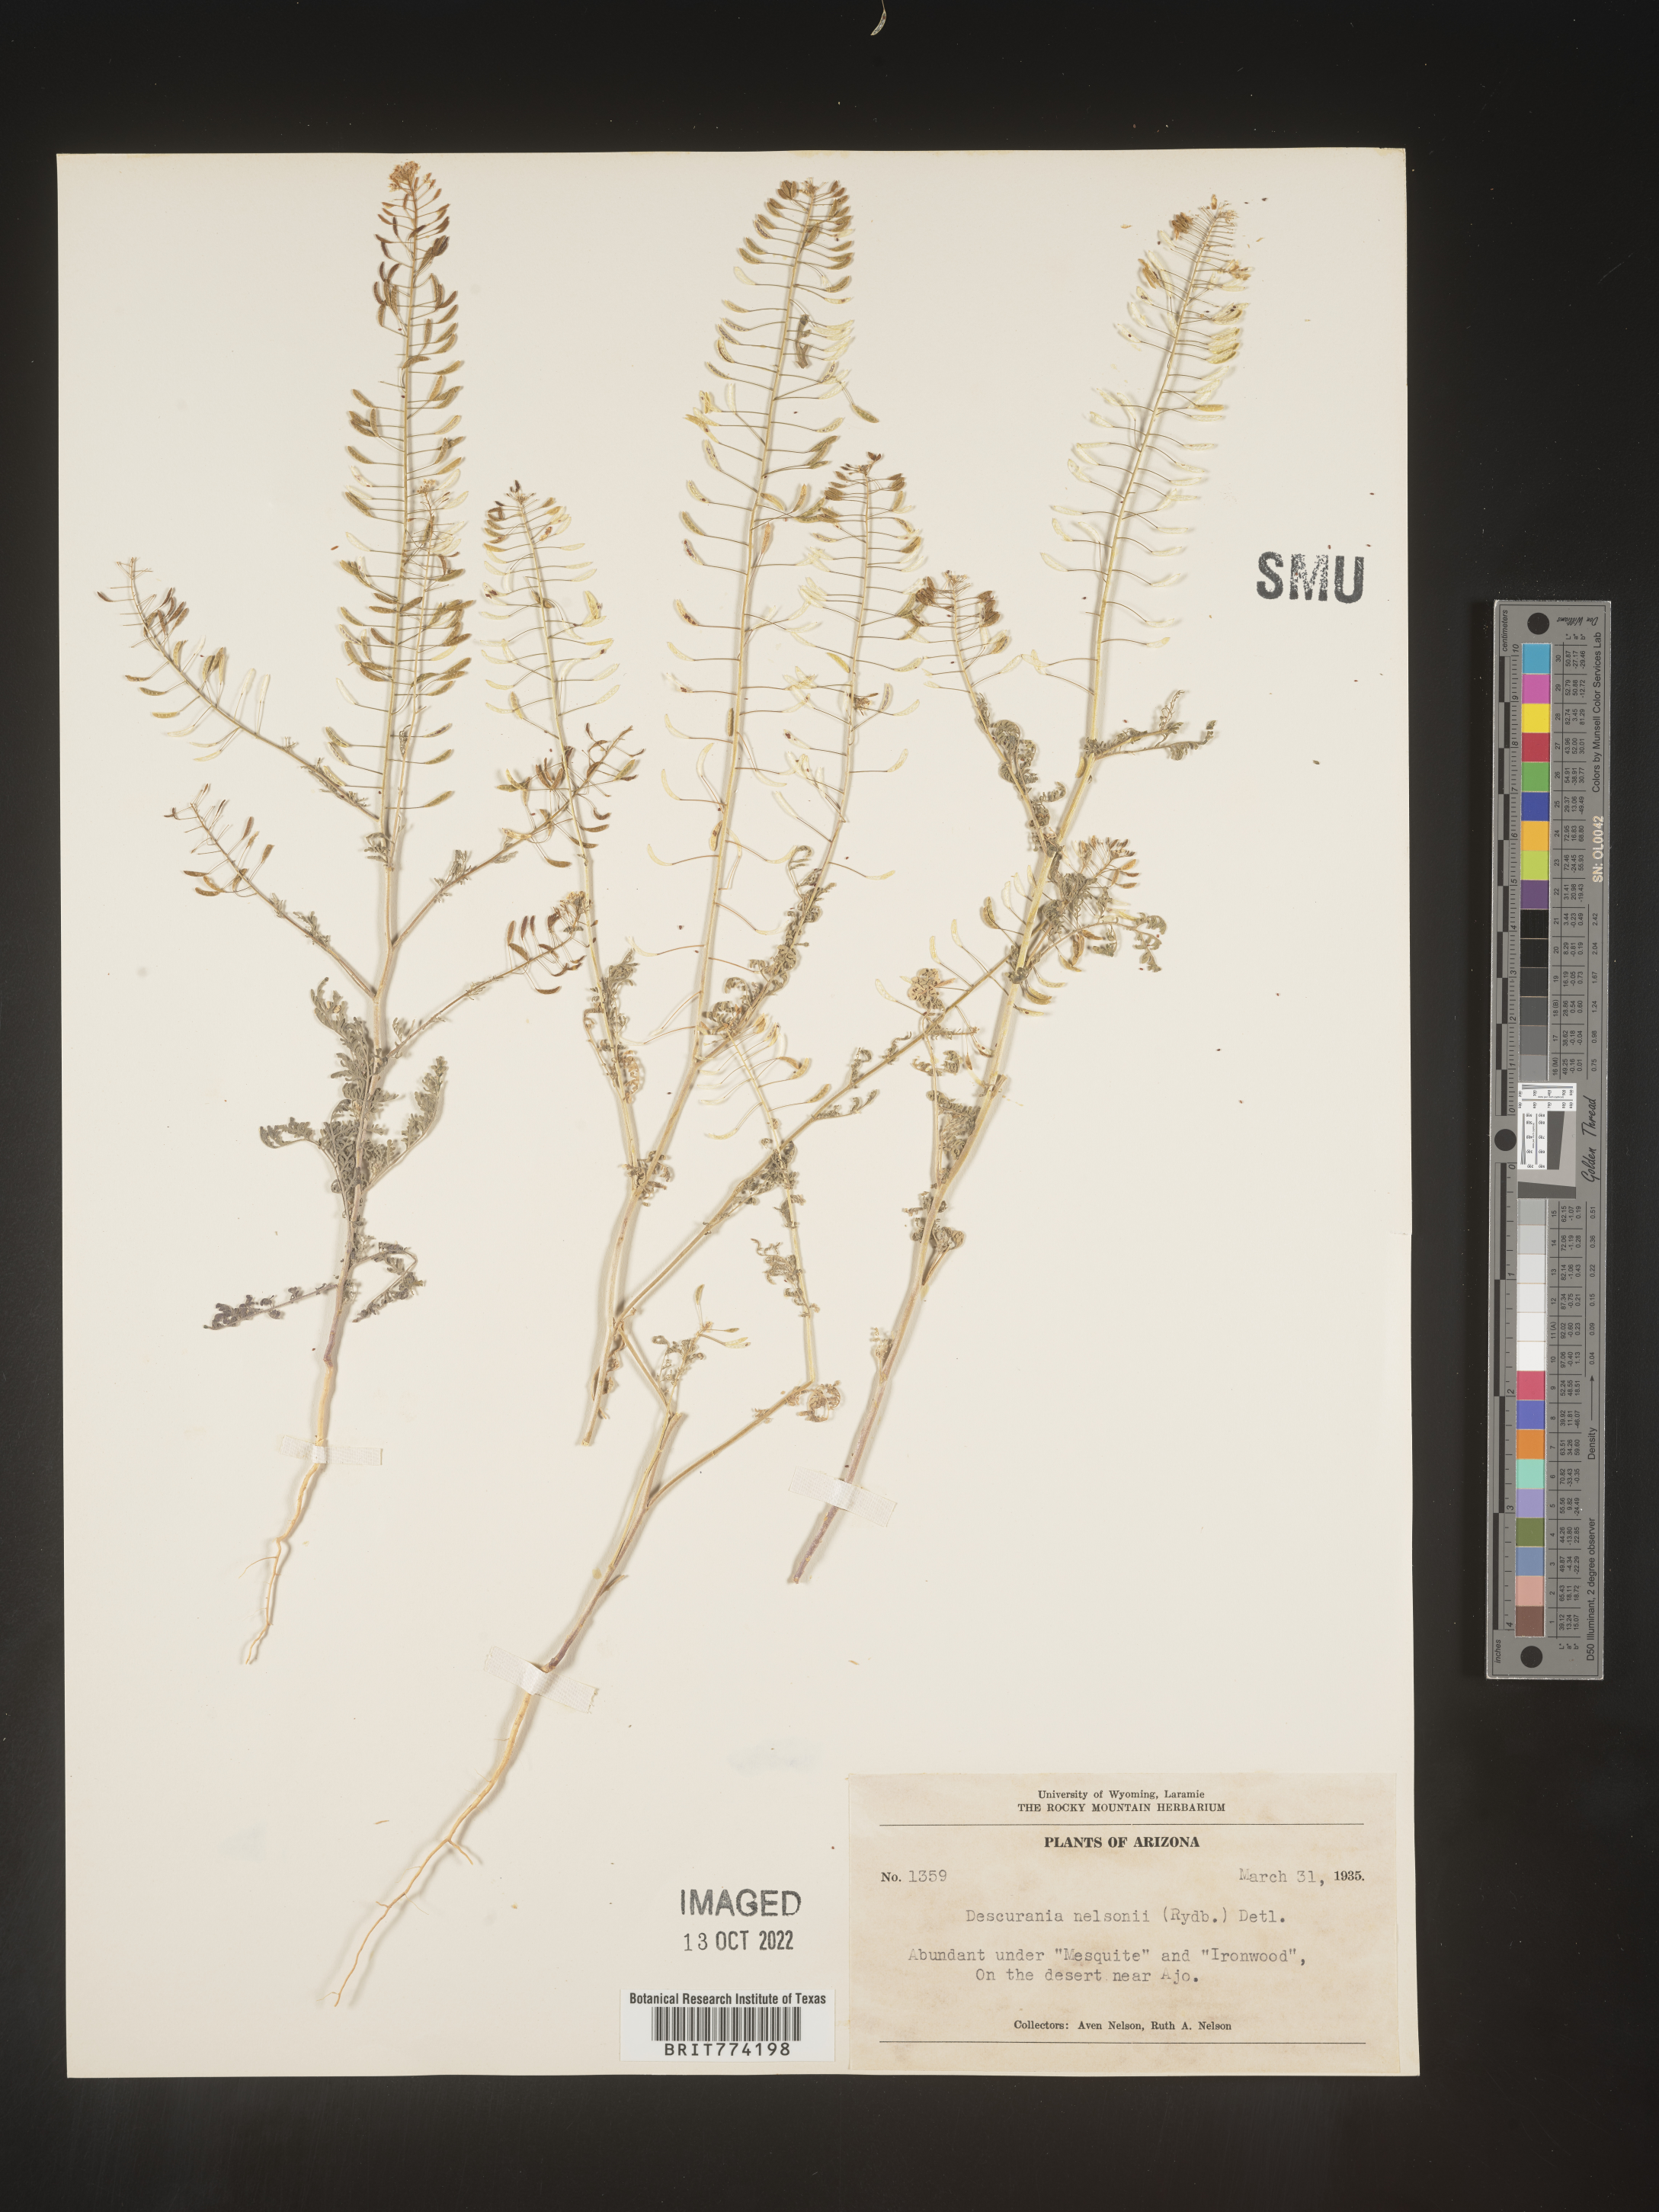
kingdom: Plantae
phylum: Tracheophyta
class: Magnoliopsida
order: Brassicales
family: Brassicaceae
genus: Descurainia
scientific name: Descurainia
